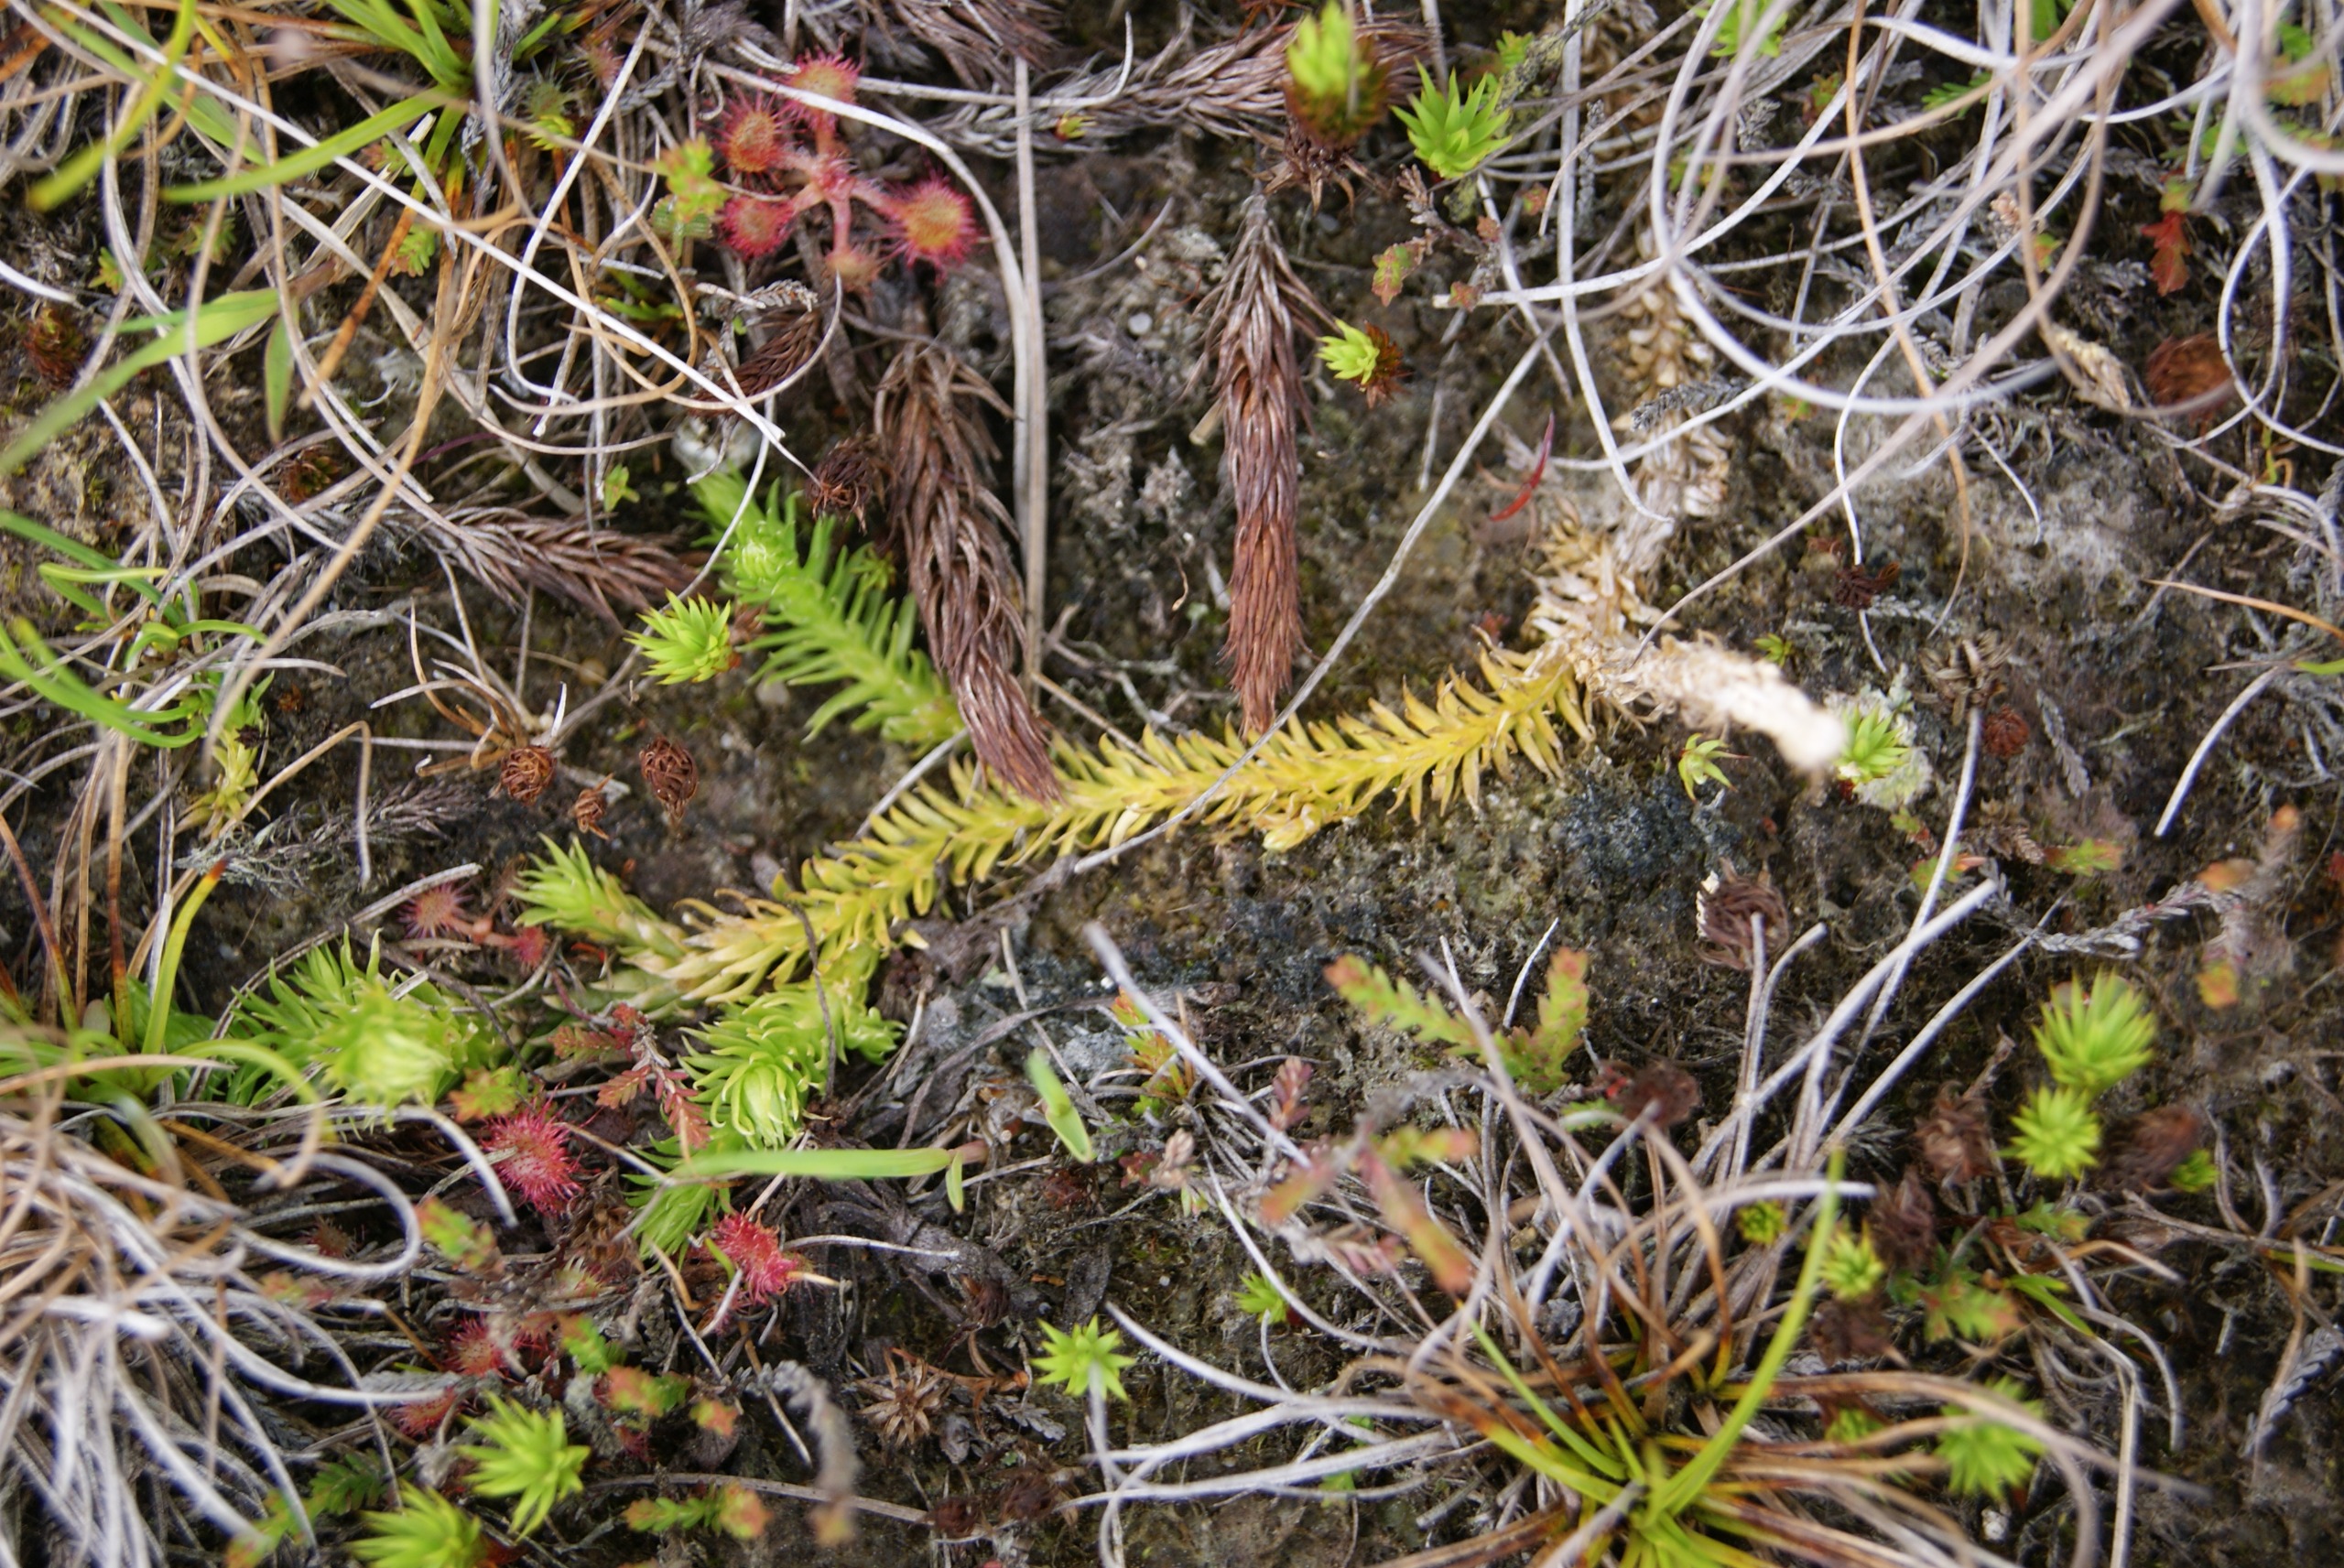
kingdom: Plantae
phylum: Tracheophyta
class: Lycopodiopsida
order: Lycopodiales
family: Lycopodiaceae
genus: Lycopodiella
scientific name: Lycopodiella inundata
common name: Liden ulvefod
